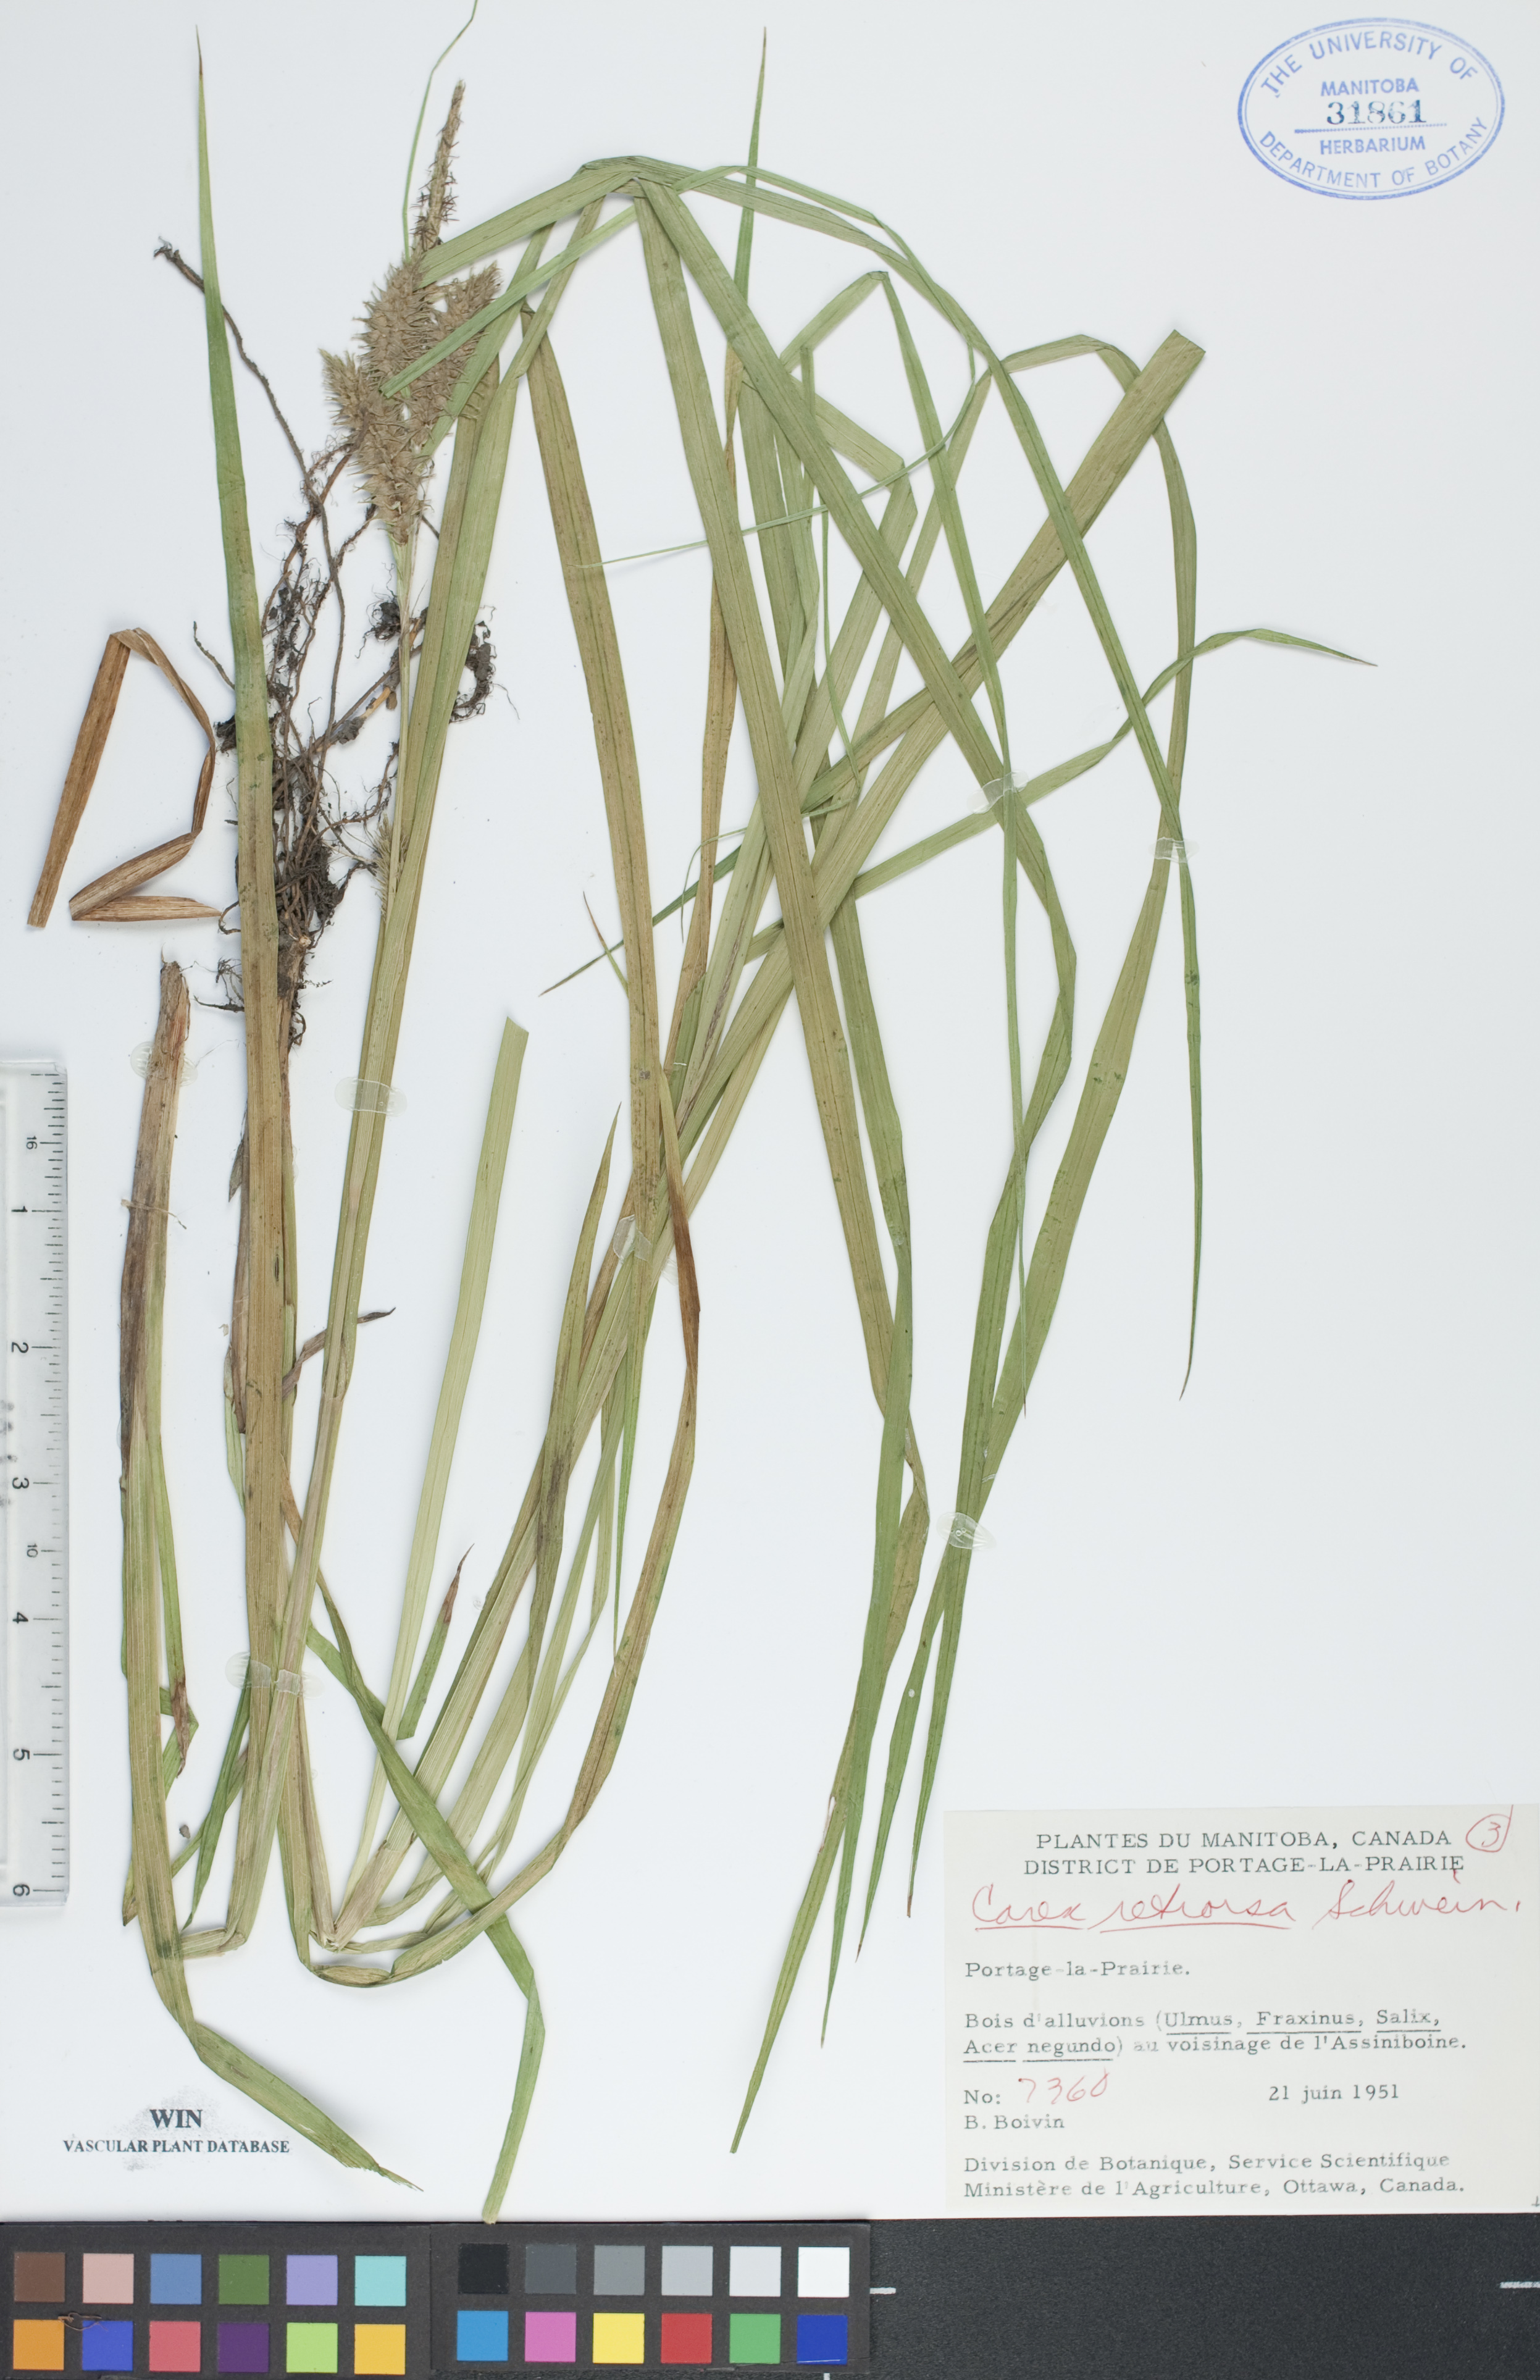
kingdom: Plantae
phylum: Tracheophyta
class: Liliopsida
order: Poales
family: Cyperaceae
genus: Carex
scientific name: Carex retrorsa
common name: Knot-sheath sedge
